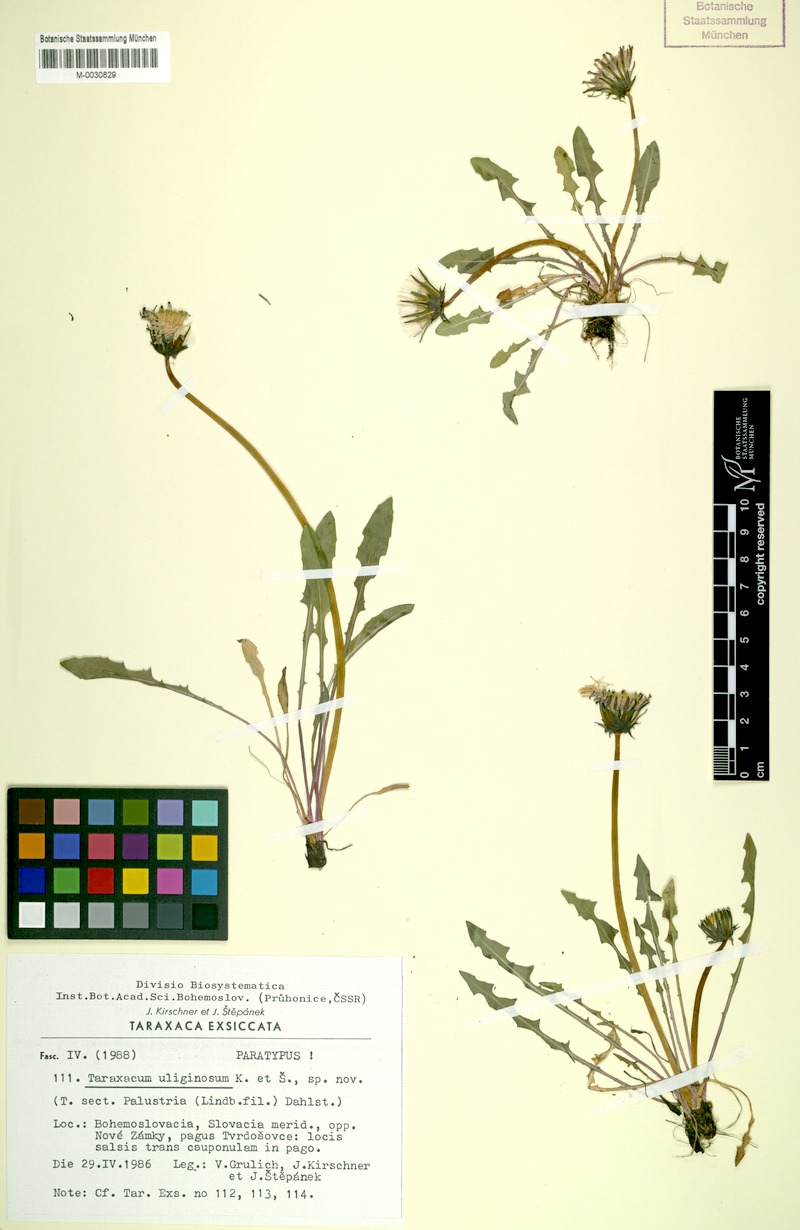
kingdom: Plantae
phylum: Tracheophyta
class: Magnoliopsida
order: Asterales
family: Asteraceae
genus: Taraxacum
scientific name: Taraxacum uliginosum
